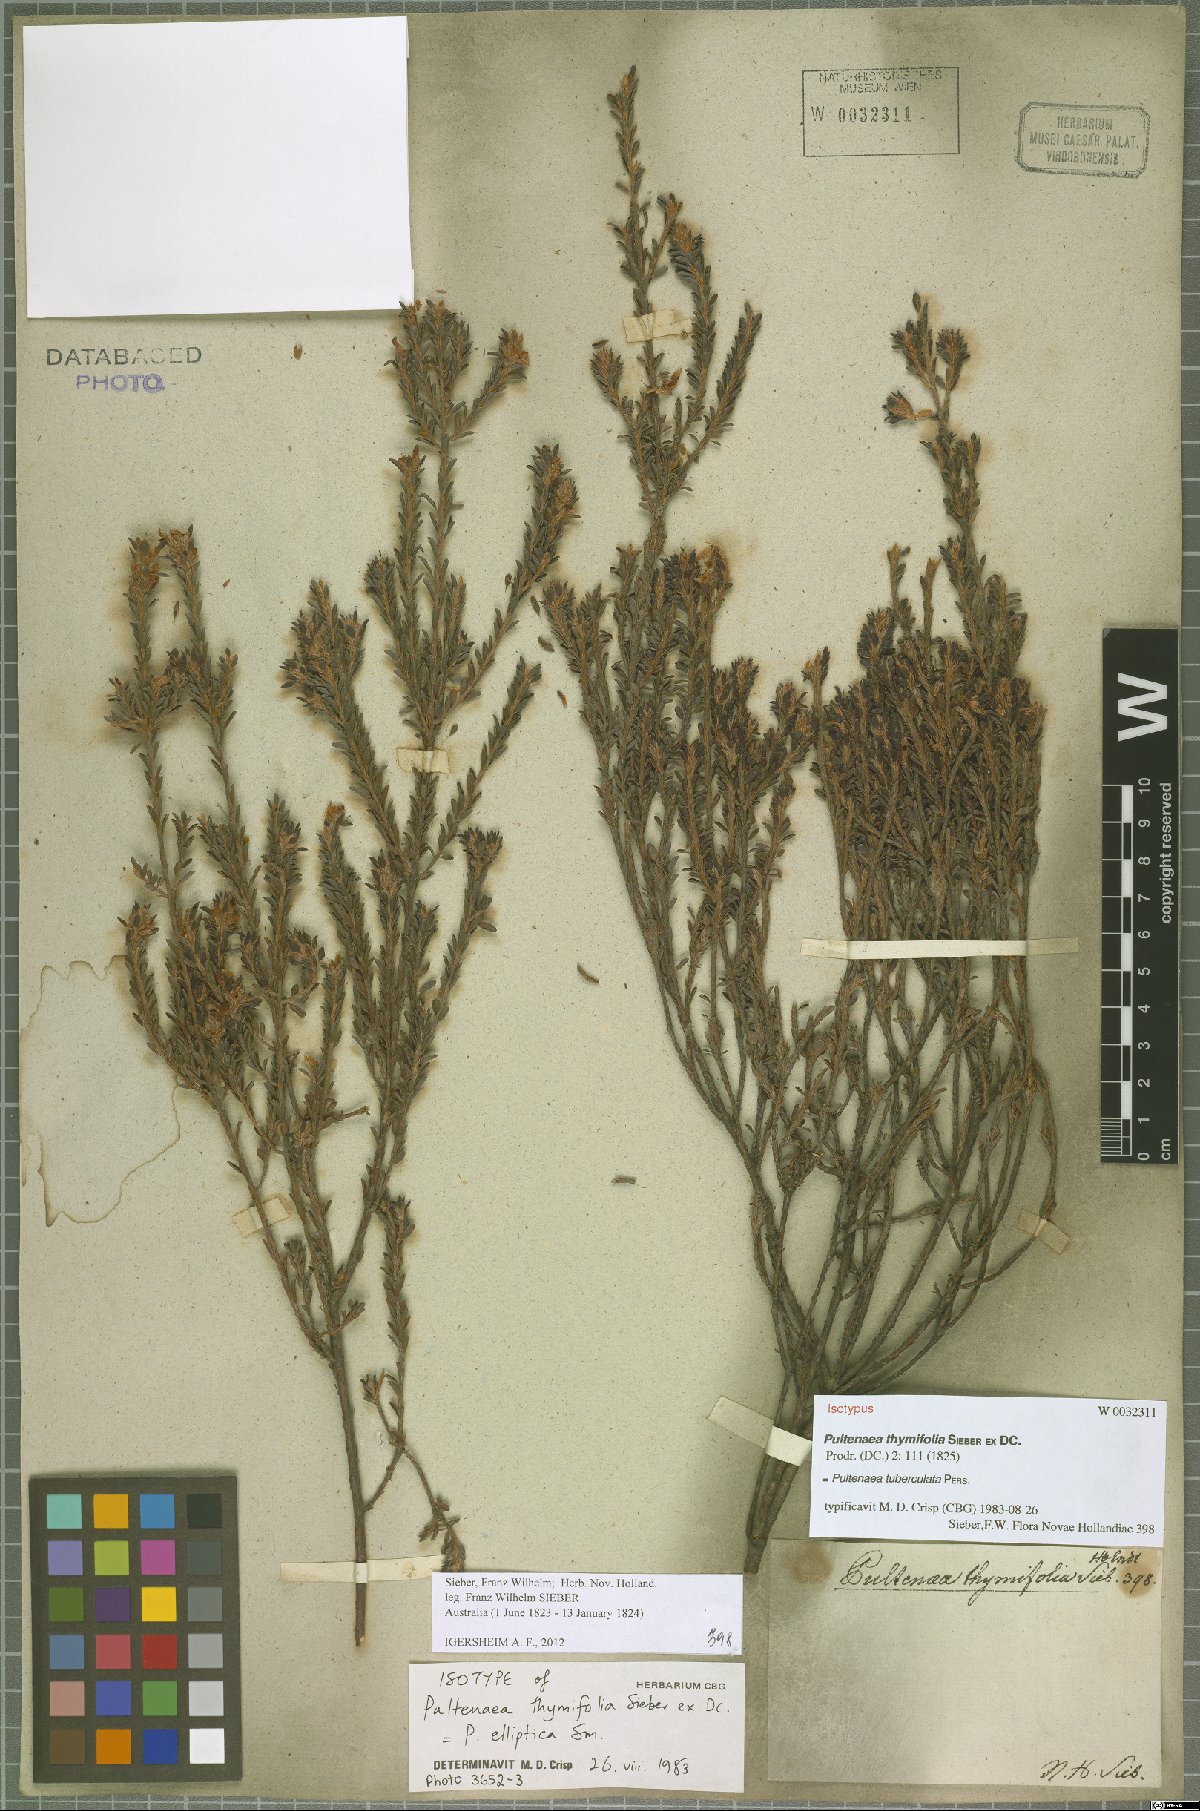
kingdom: Plantae
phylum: Tracheophyta
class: Magnoliopsida
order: Fabales
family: Fabaceae
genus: Pultenaea
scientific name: Pultenaea tuberculata
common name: Wreath bush-pea
